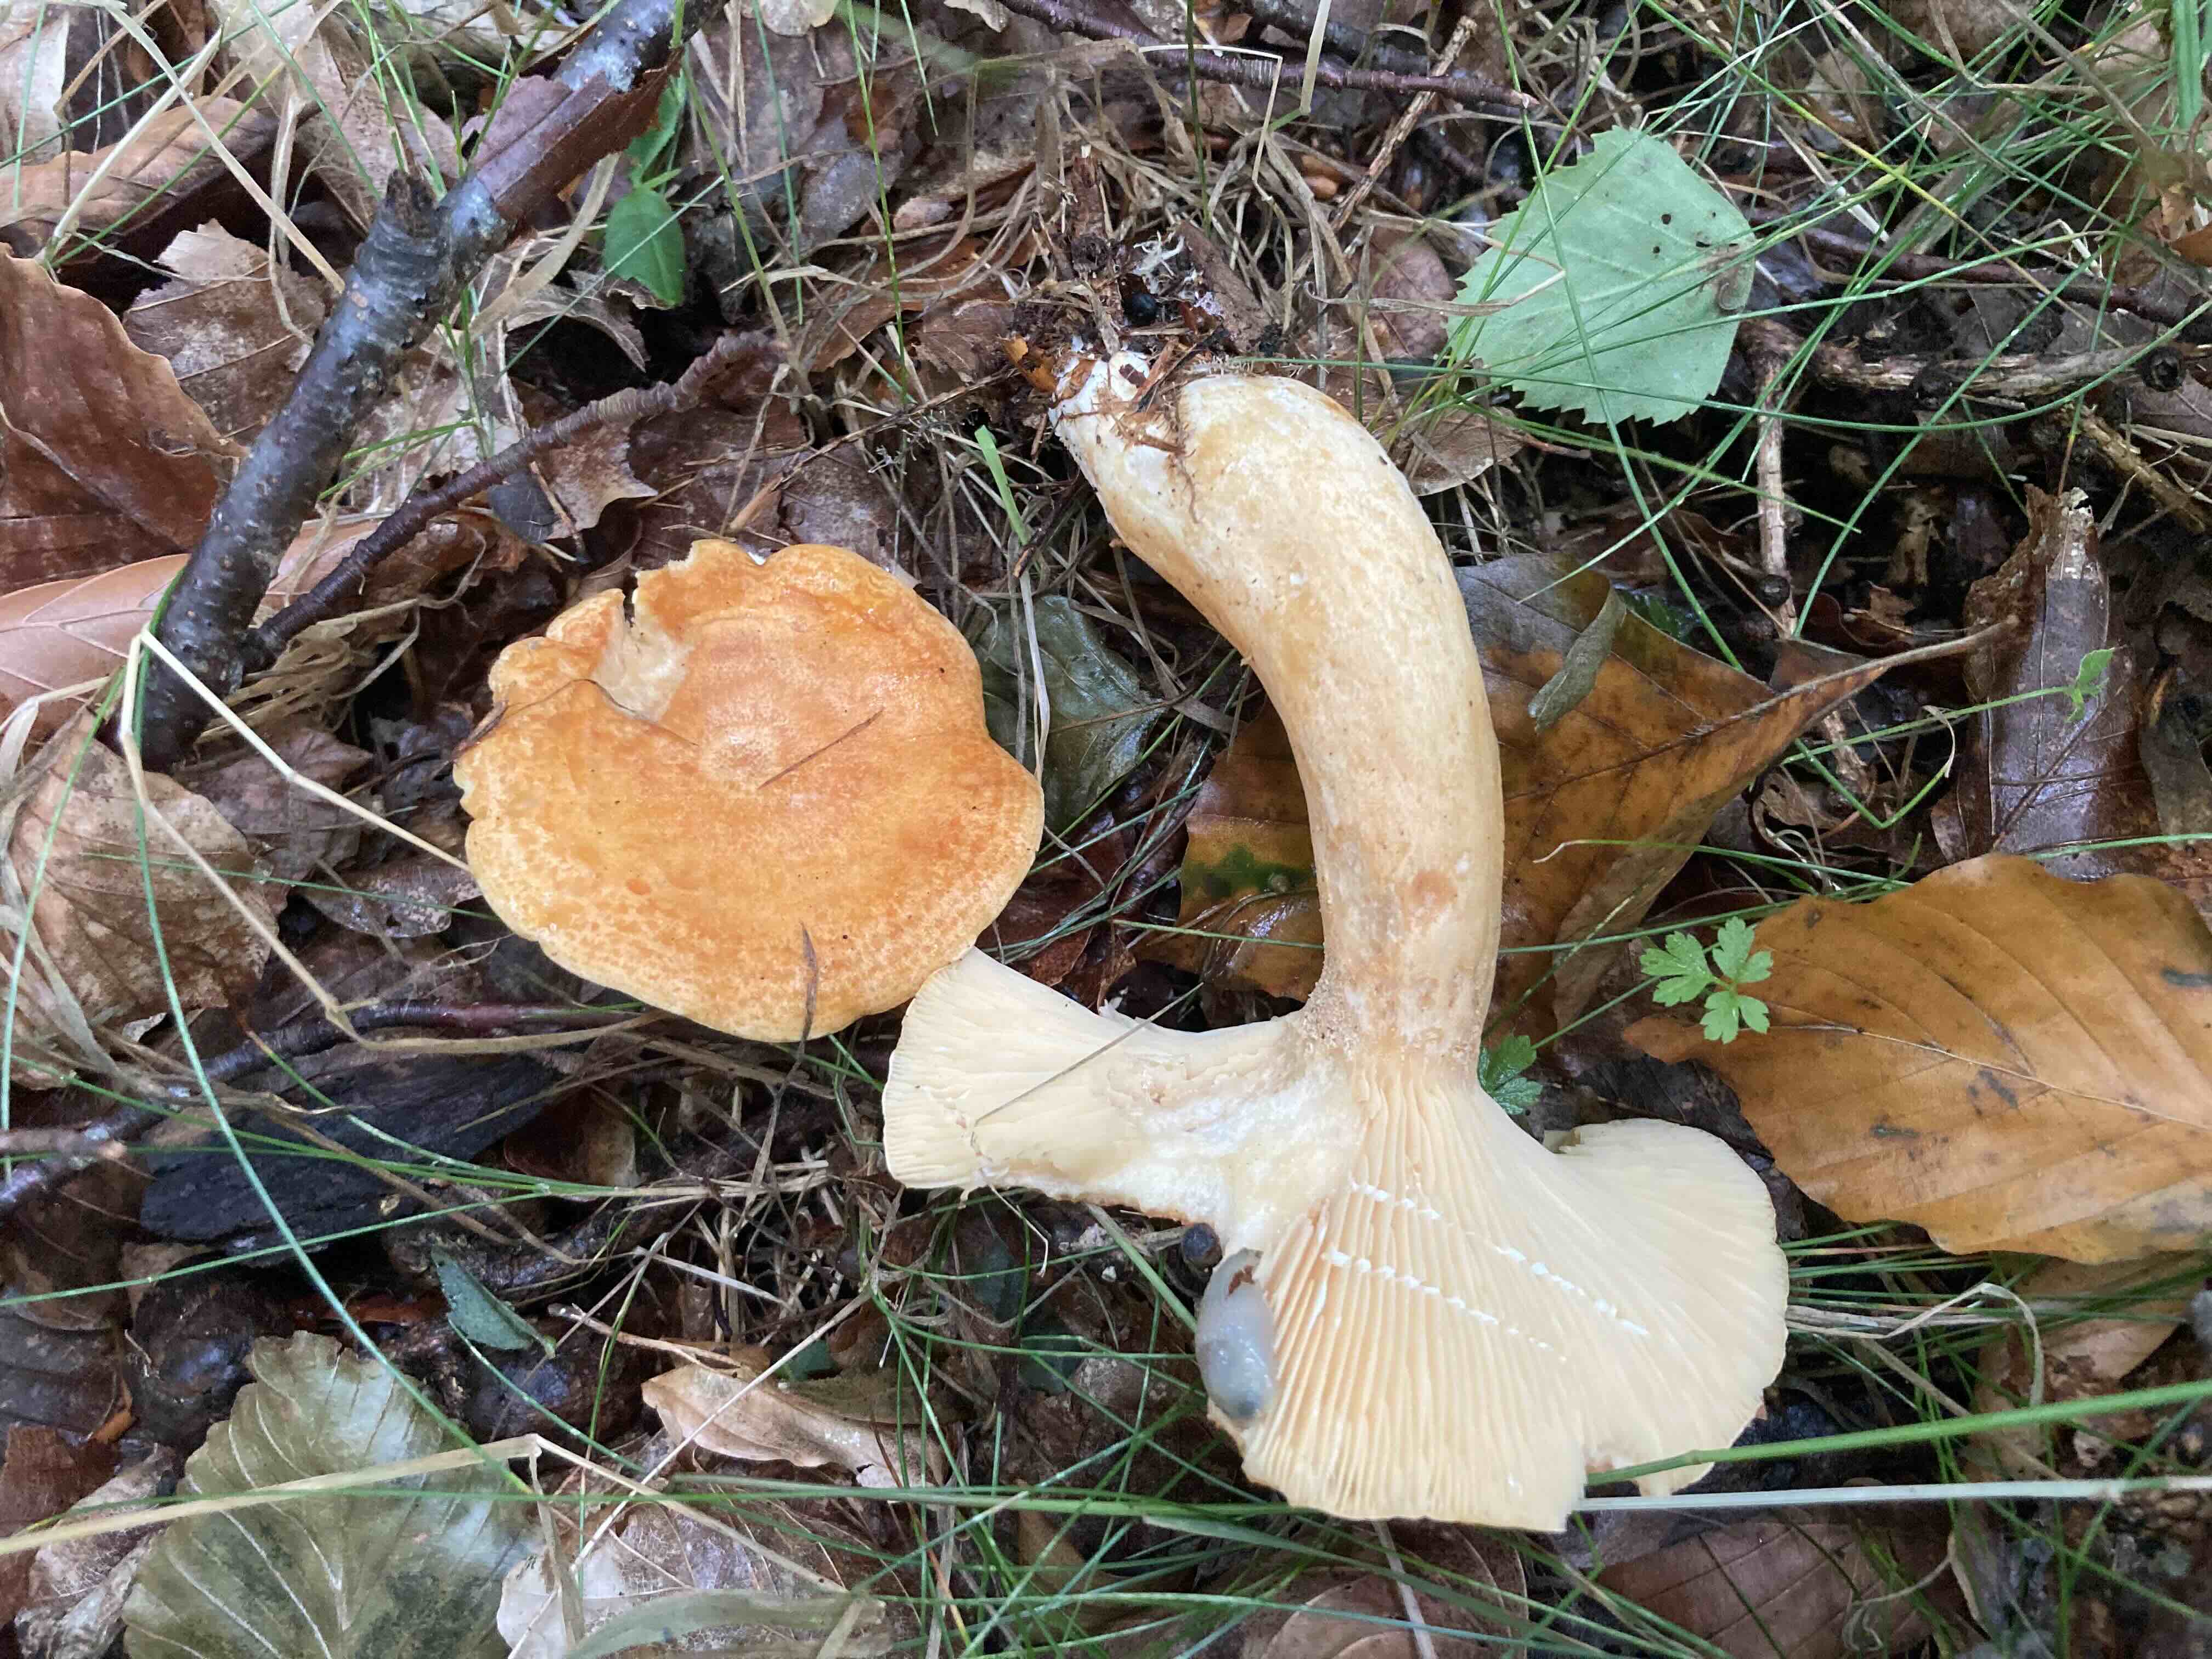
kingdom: Fungi
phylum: Basidiomycota
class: Agaricomycetes
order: Russulales
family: Russulaceae
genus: Lactarius
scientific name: Lactarius porninsis
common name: lærke-mælkehat
